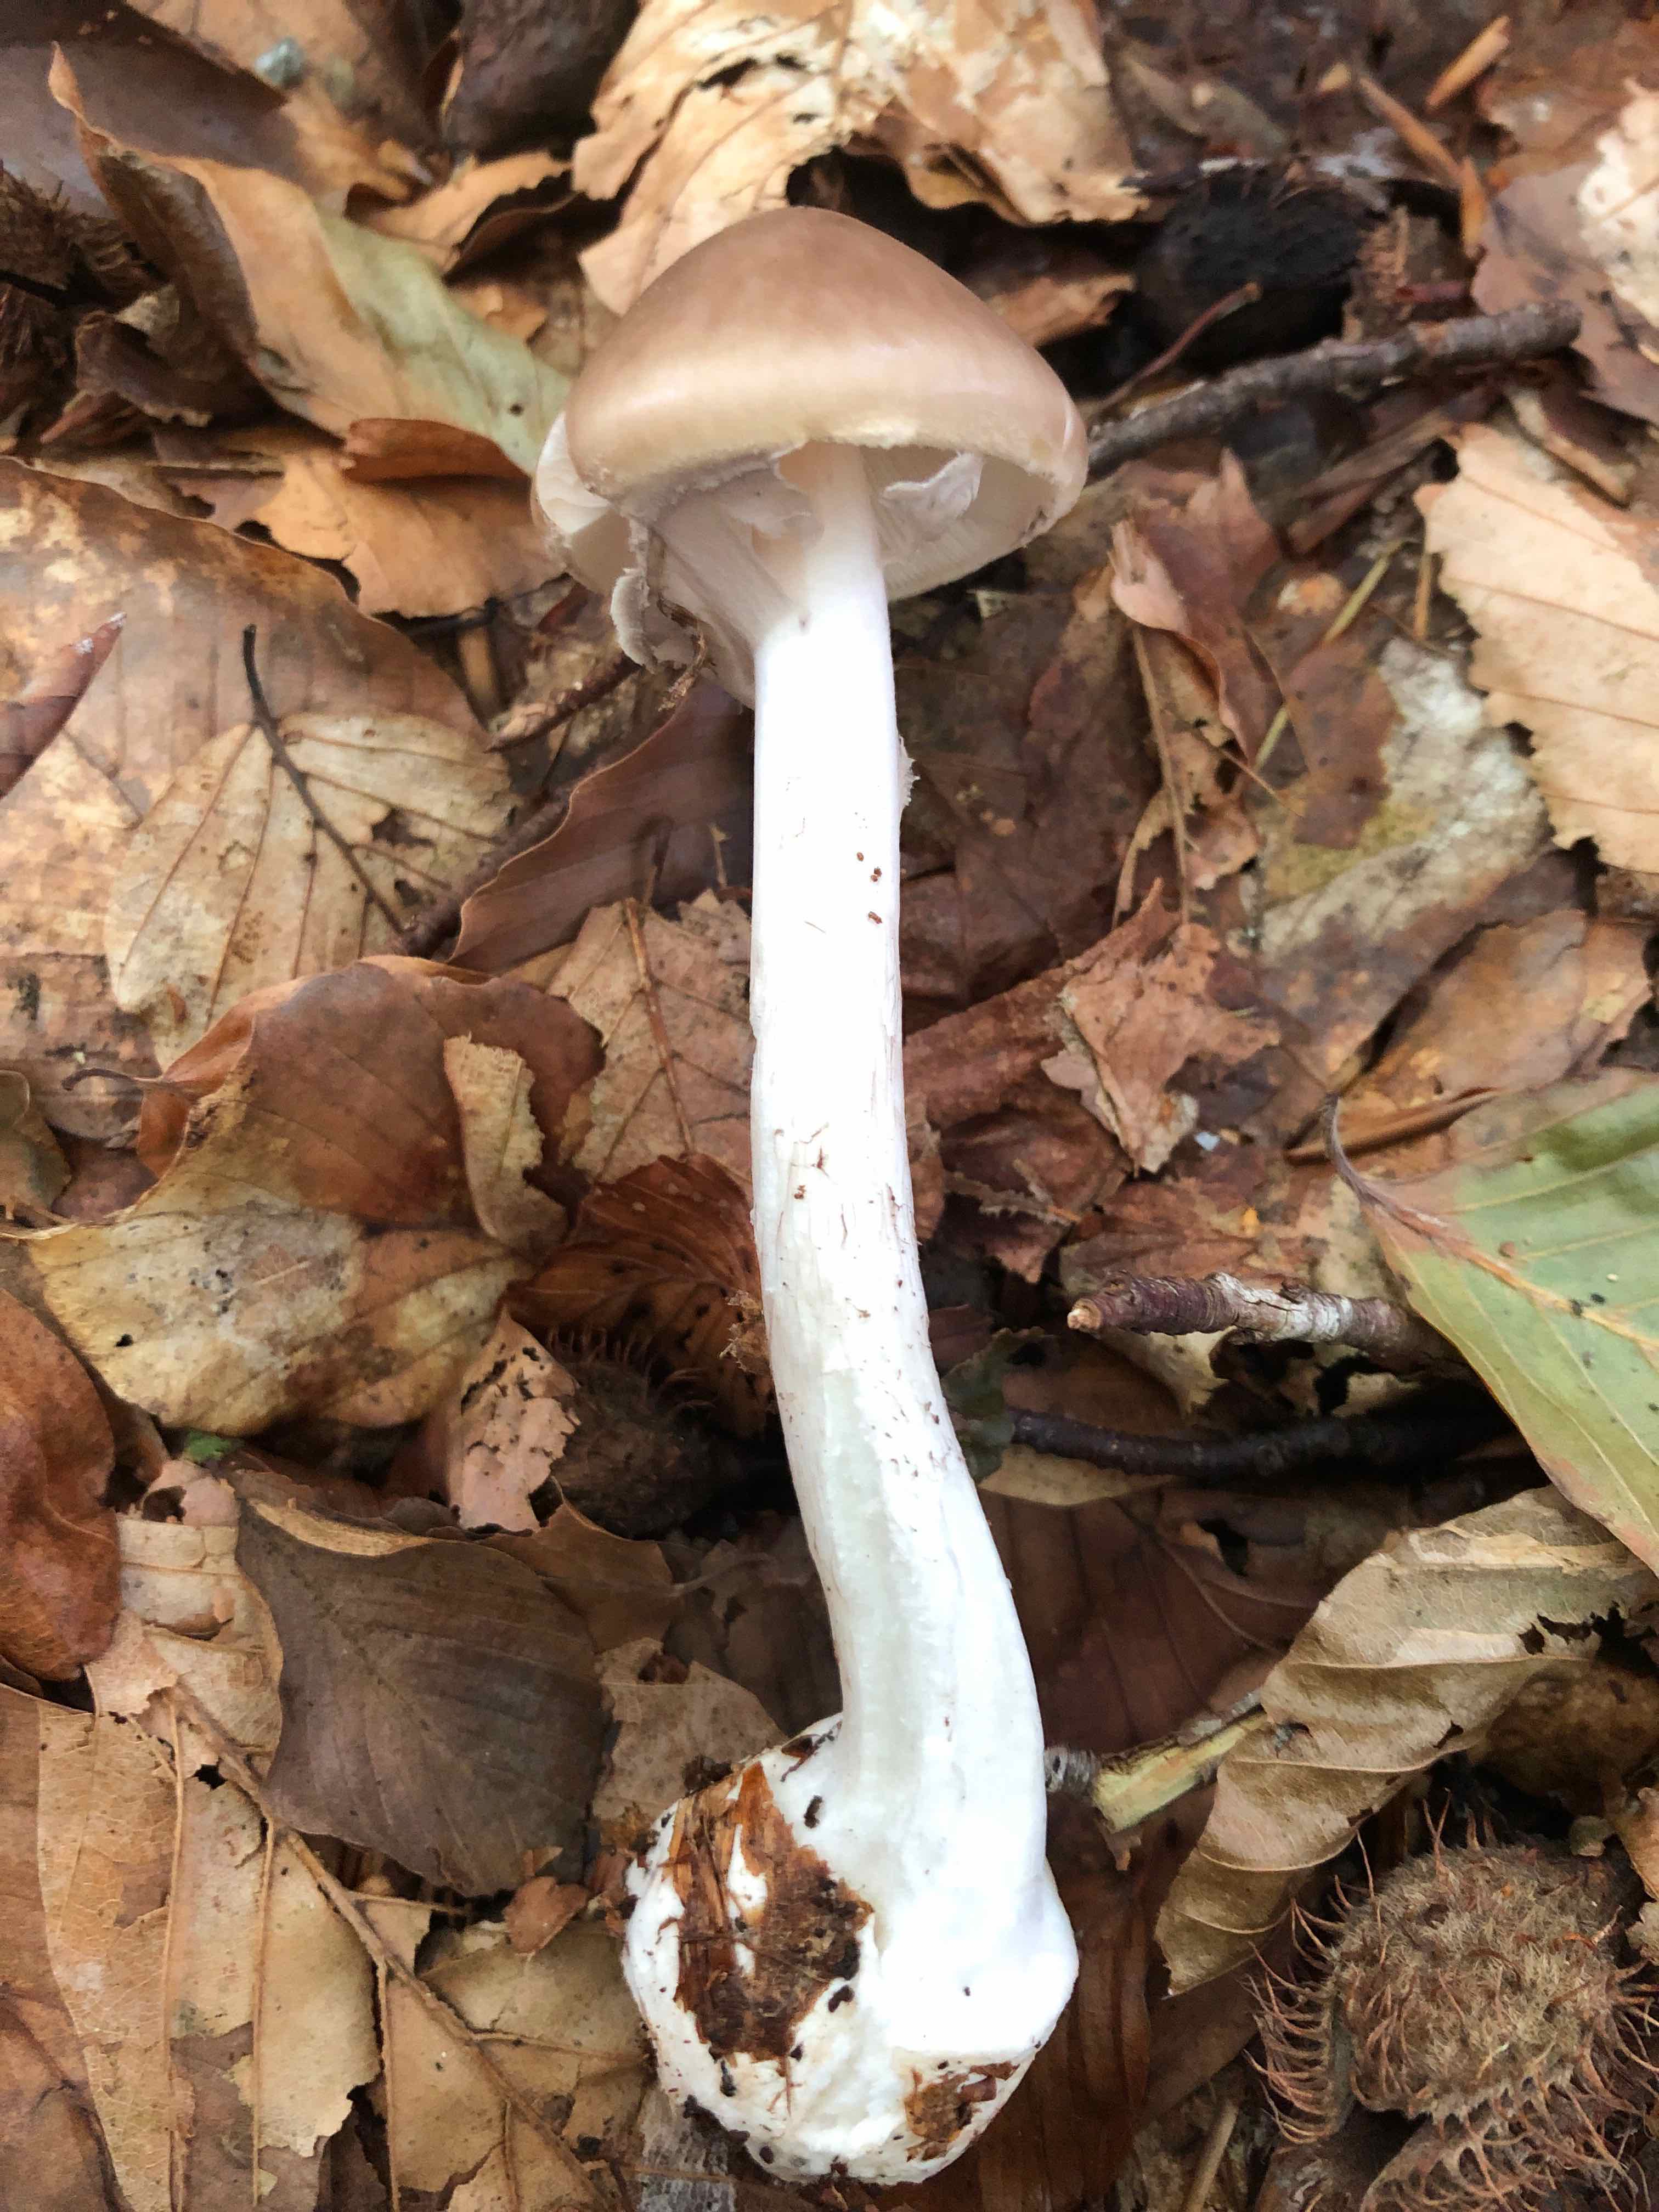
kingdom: Fungi
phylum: Basidiomycota
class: Agaricomycetes
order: Agaricales
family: Amanitaceae
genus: Amanita
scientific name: Amanita porphyria
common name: porfyr-fluesvamp
